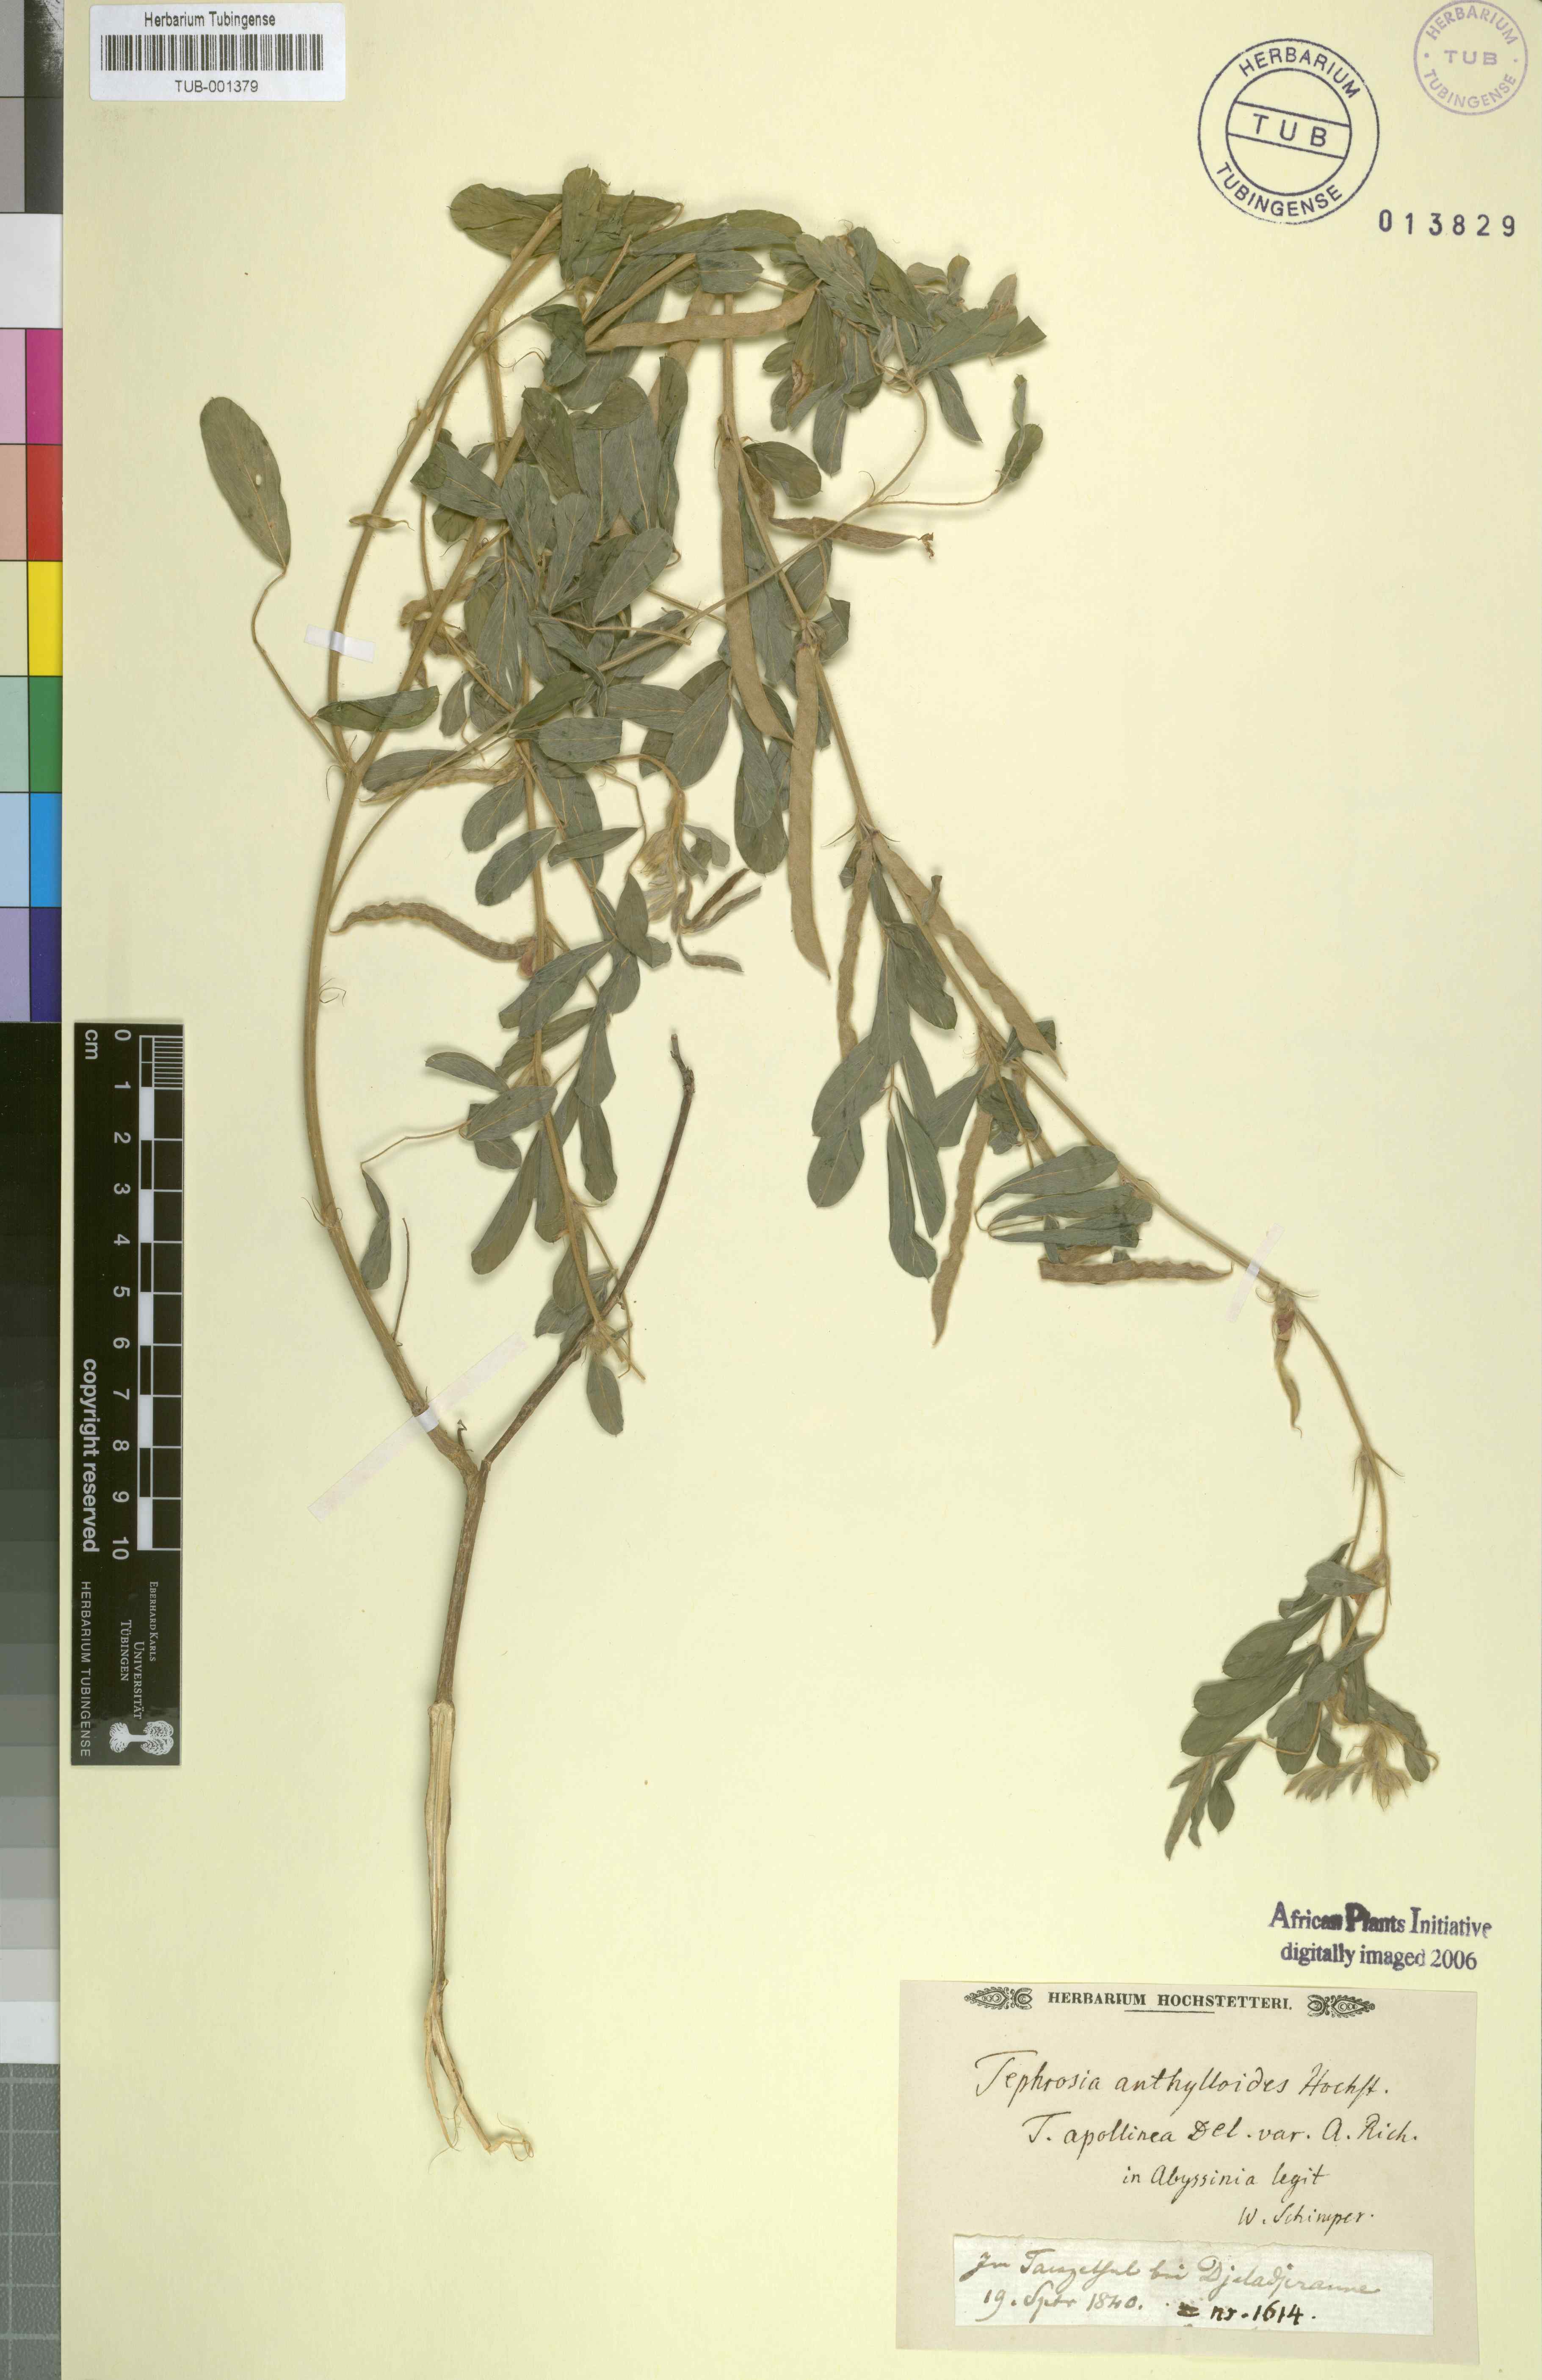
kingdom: Plantae
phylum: Tracheophyta
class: Magnoliopsida
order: Fabales
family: Fabaceae
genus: Tephrosia
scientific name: Tephrosia uniflora
